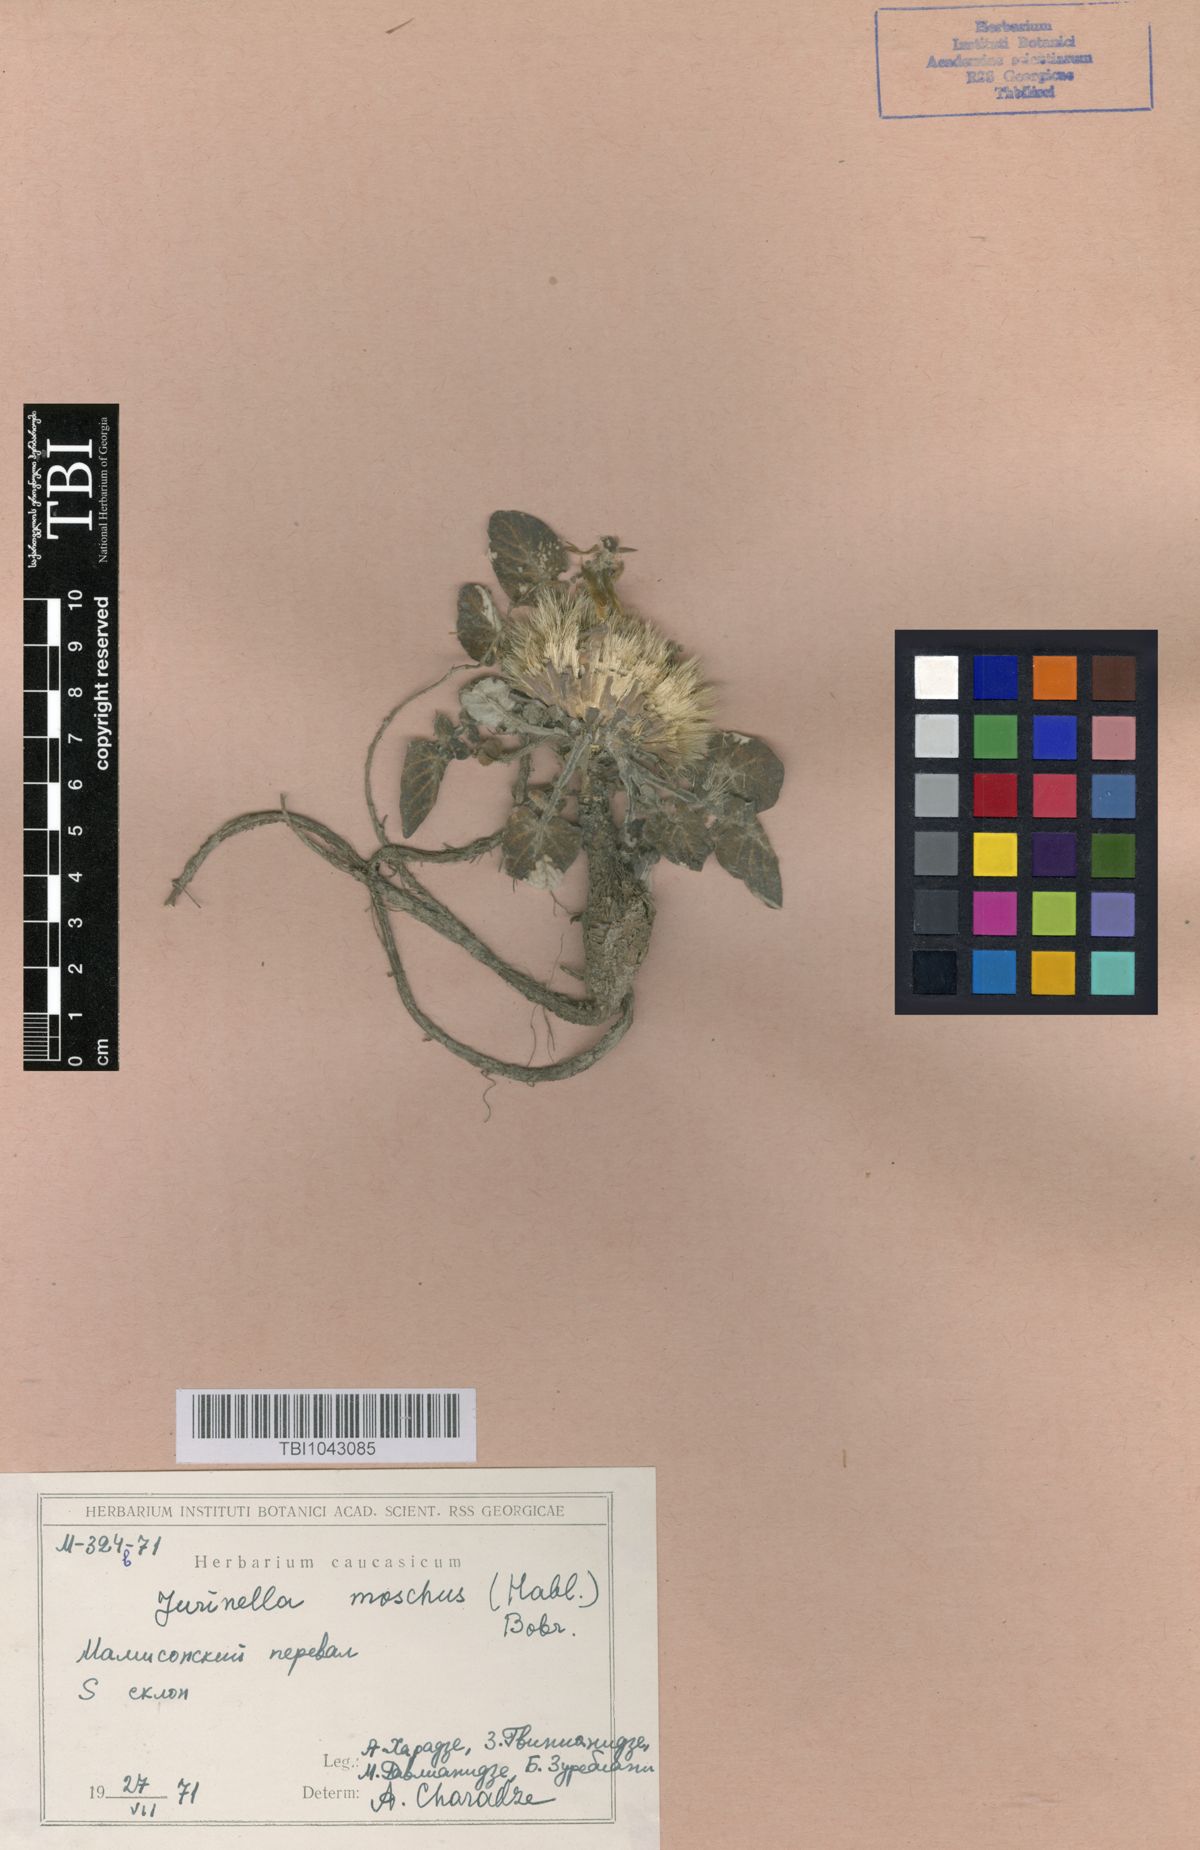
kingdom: Plantae
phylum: Tracheophyta
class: Magnoliopsida
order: Asterales
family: Asteraceae
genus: Jurinea
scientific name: Jurinea moschus
